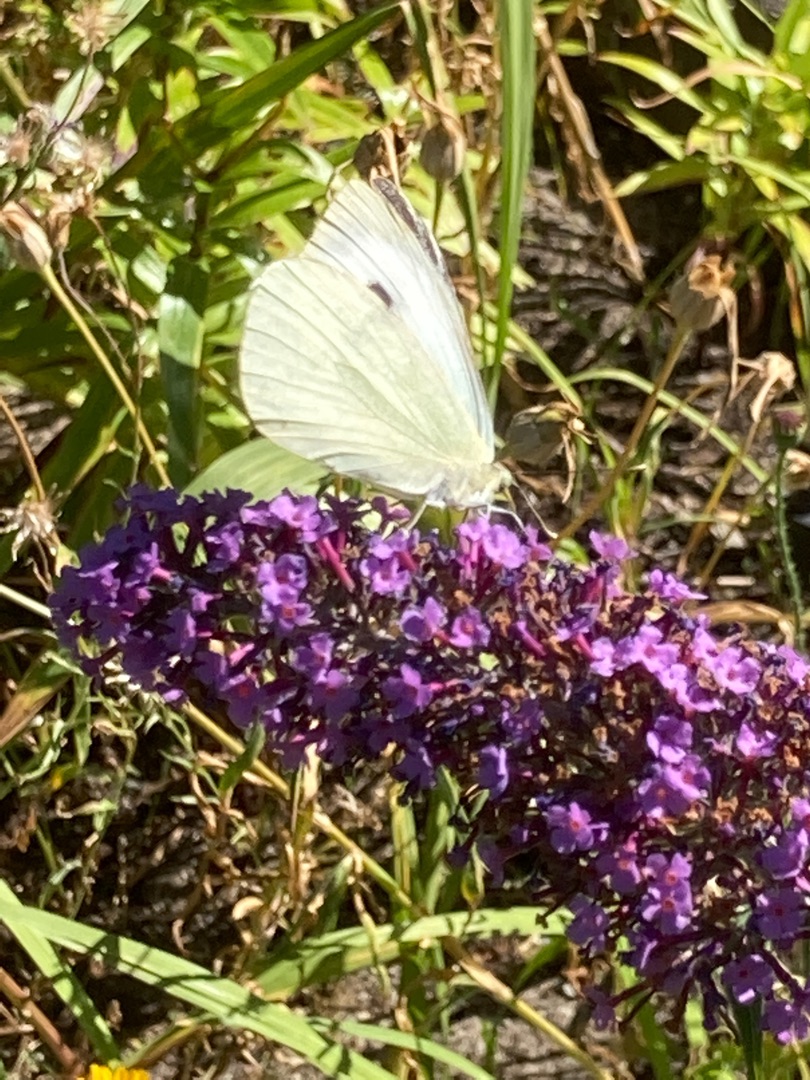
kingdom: Animalia
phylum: Arthropoda
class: Insecta
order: Lepidoptera
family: Pieridae
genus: Pieris
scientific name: Pieris brassicae
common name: Stor kålsommerfugl
